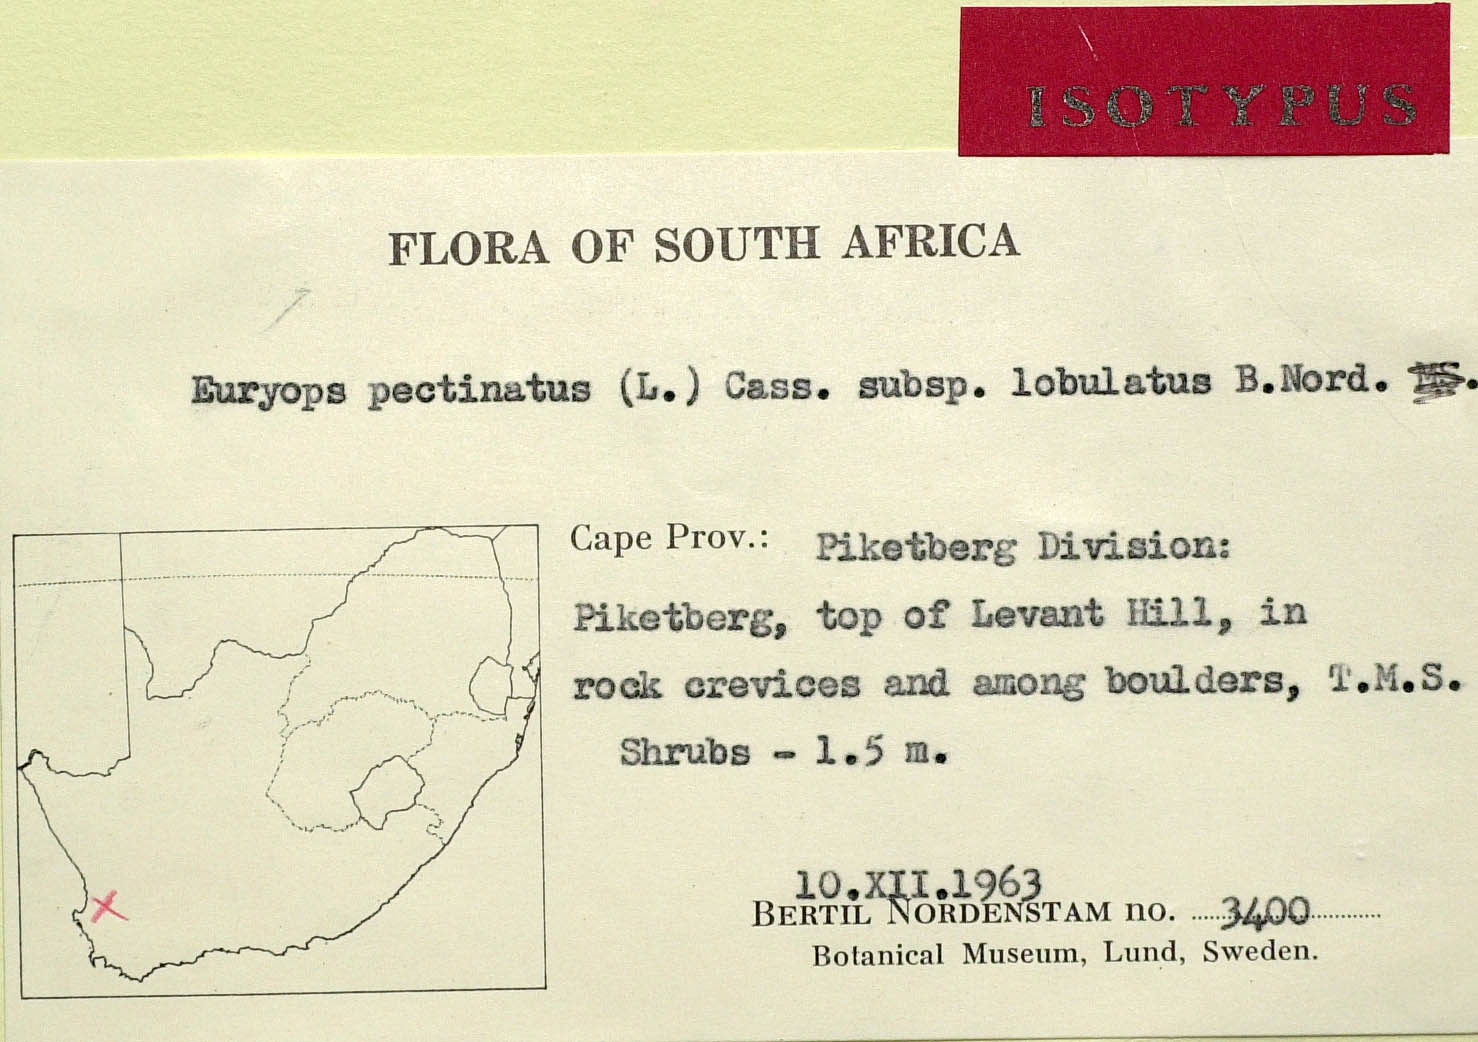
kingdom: Plantae
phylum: Tracheophyta
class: Magnoliopsida
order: Asterales
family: Asteraceae
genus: Euryops
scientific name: Euryops pectinatus
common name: Gray-leaf euryops
